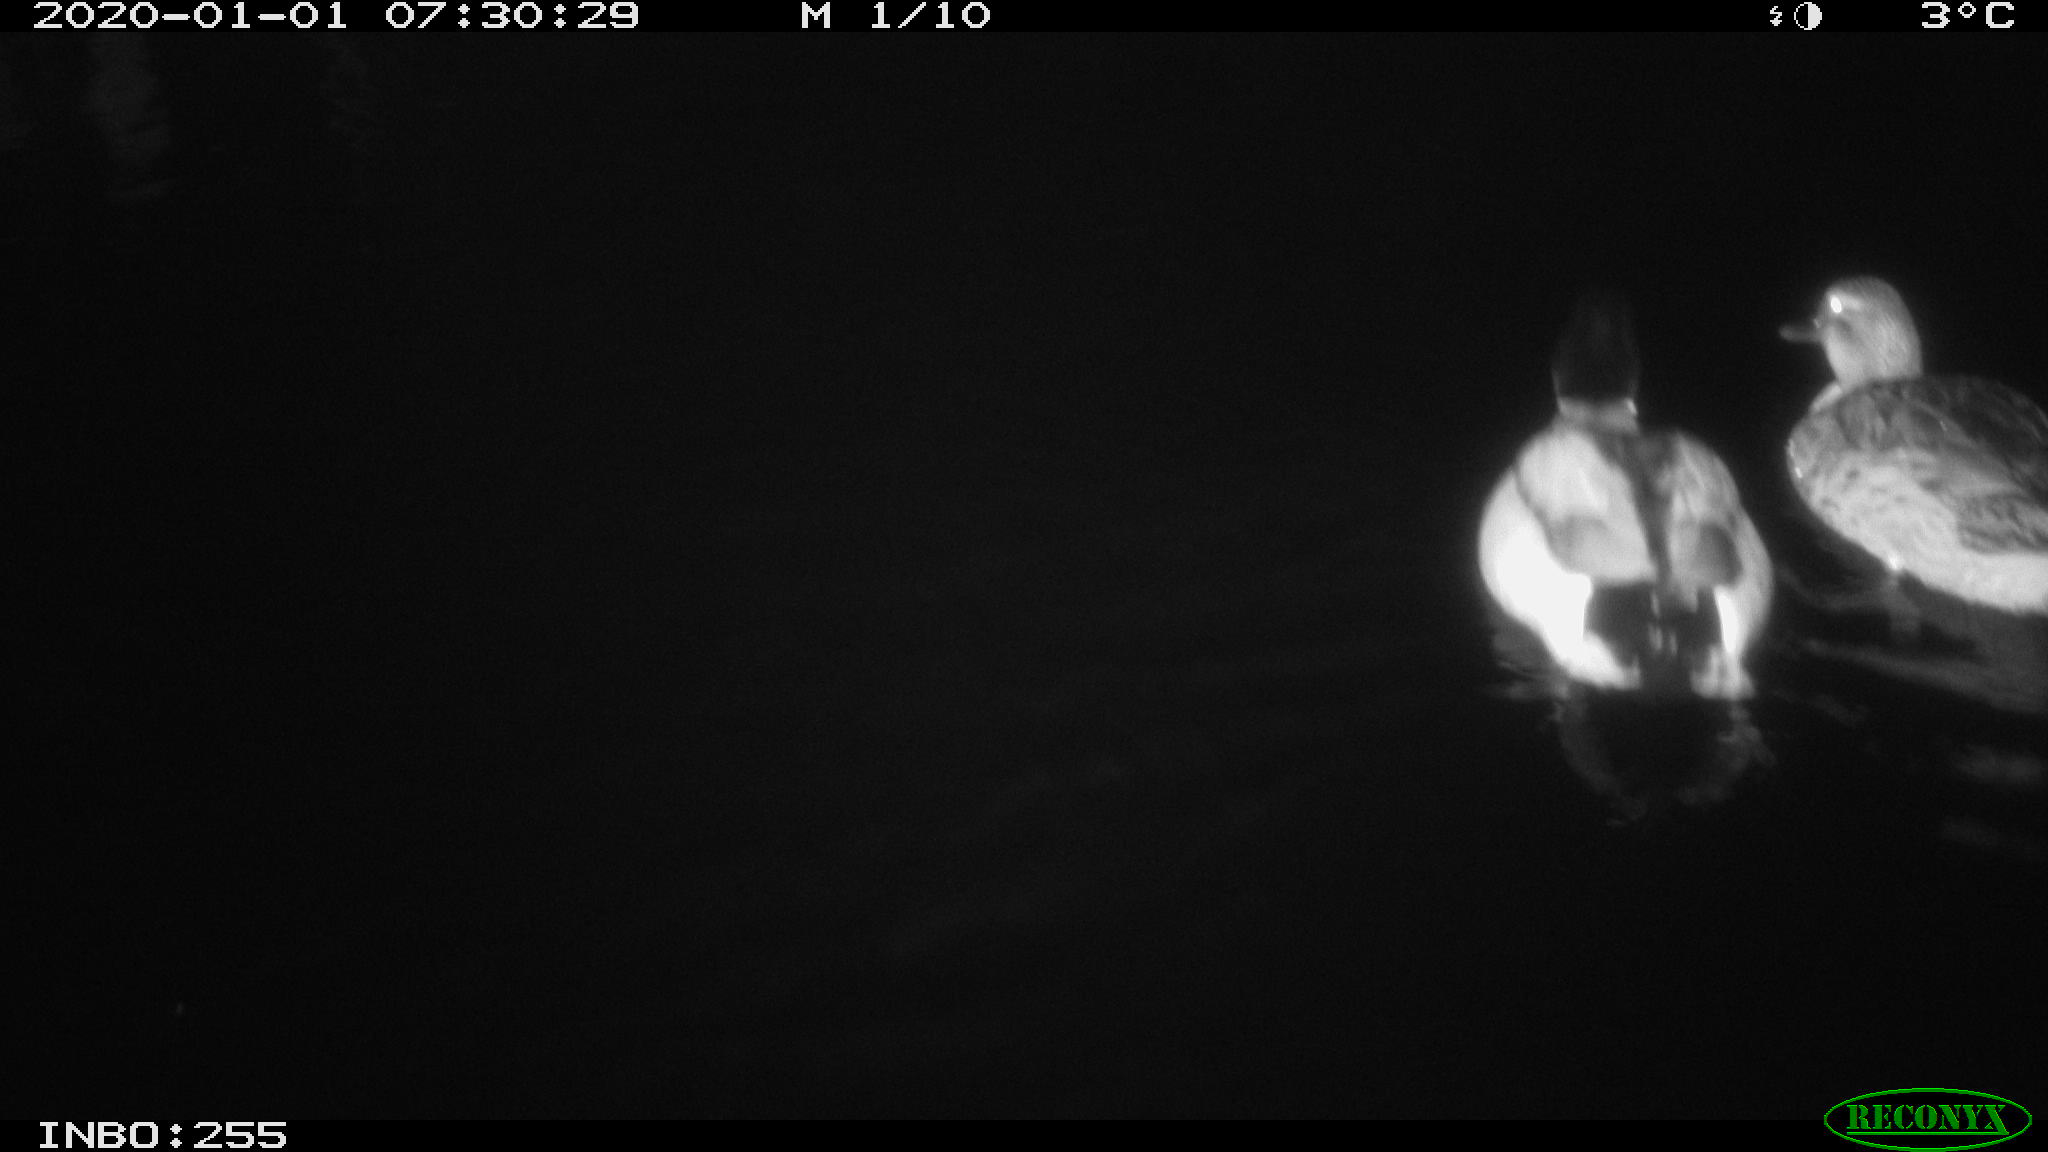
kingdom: Animalia
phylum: Chordata
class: Aves
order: Anseriformes
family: Anatidae
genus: Anas
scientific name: Anas platyrhynchos
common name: Mallard
